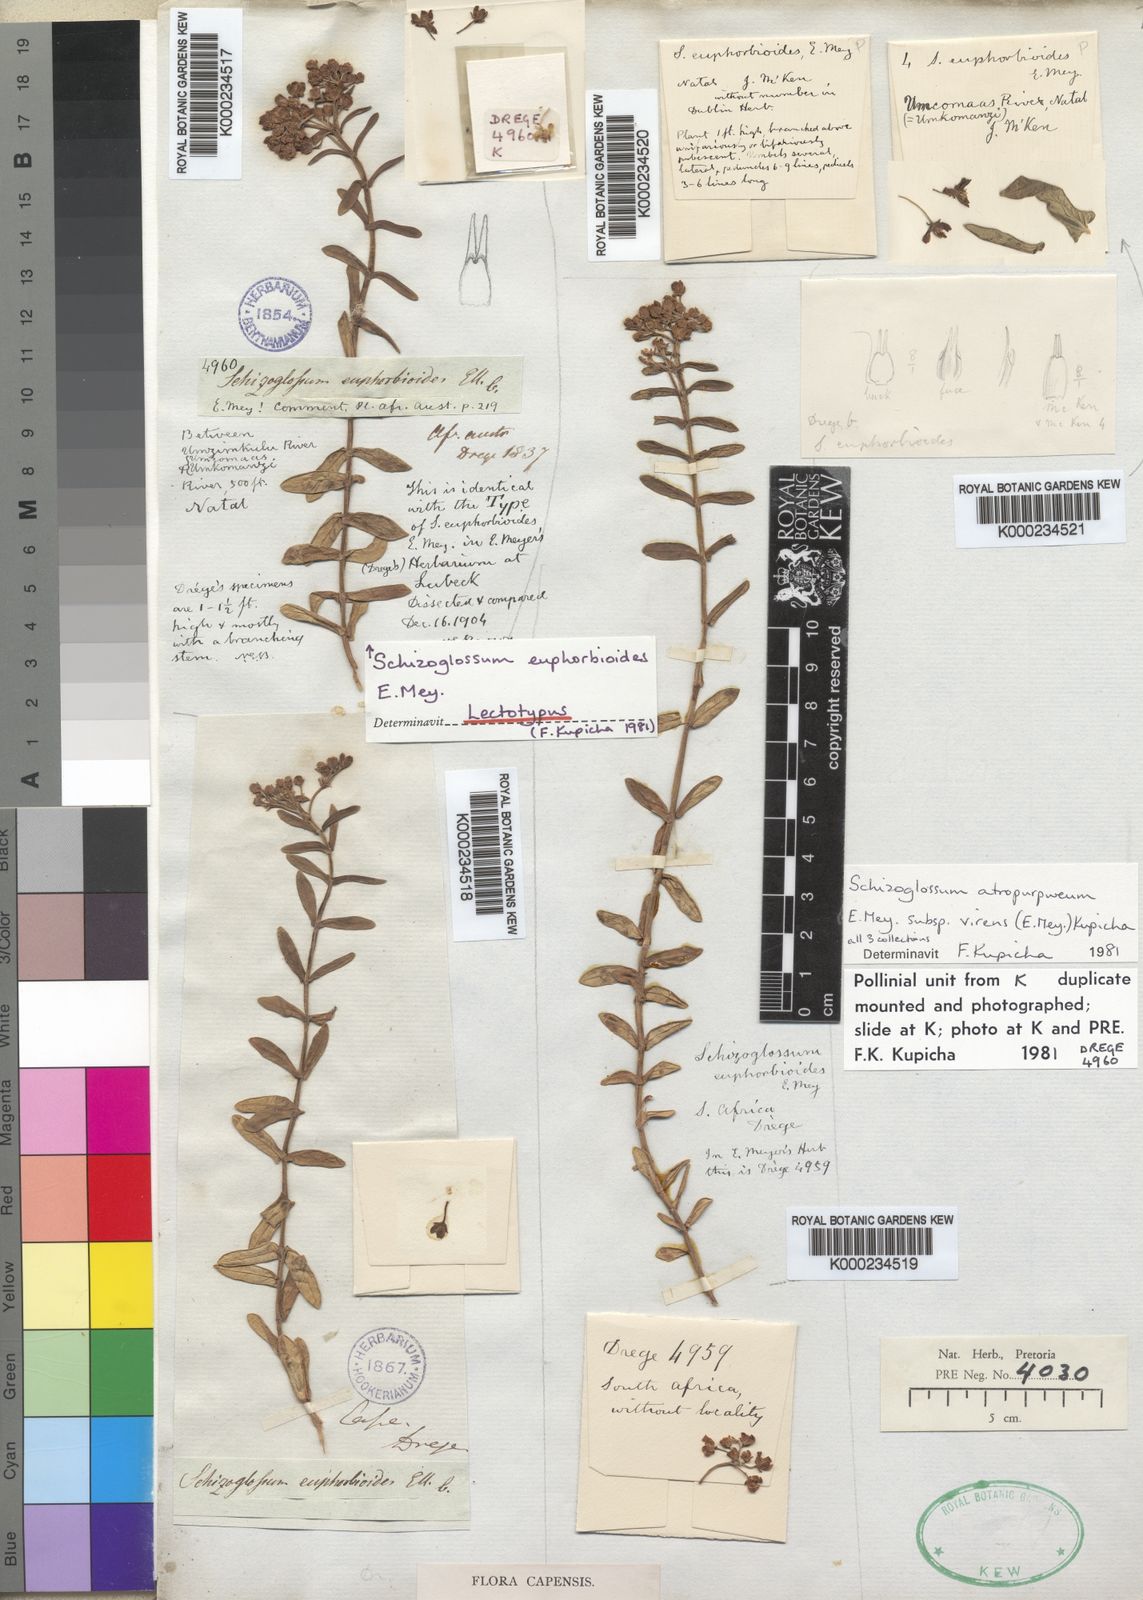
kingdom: Plantae
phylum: Tracheophyta
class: Magnoliopsida
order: Gentianales
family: Apocynaceae
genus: Schizoglossum
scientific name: Schizoglossum atropurpureum
